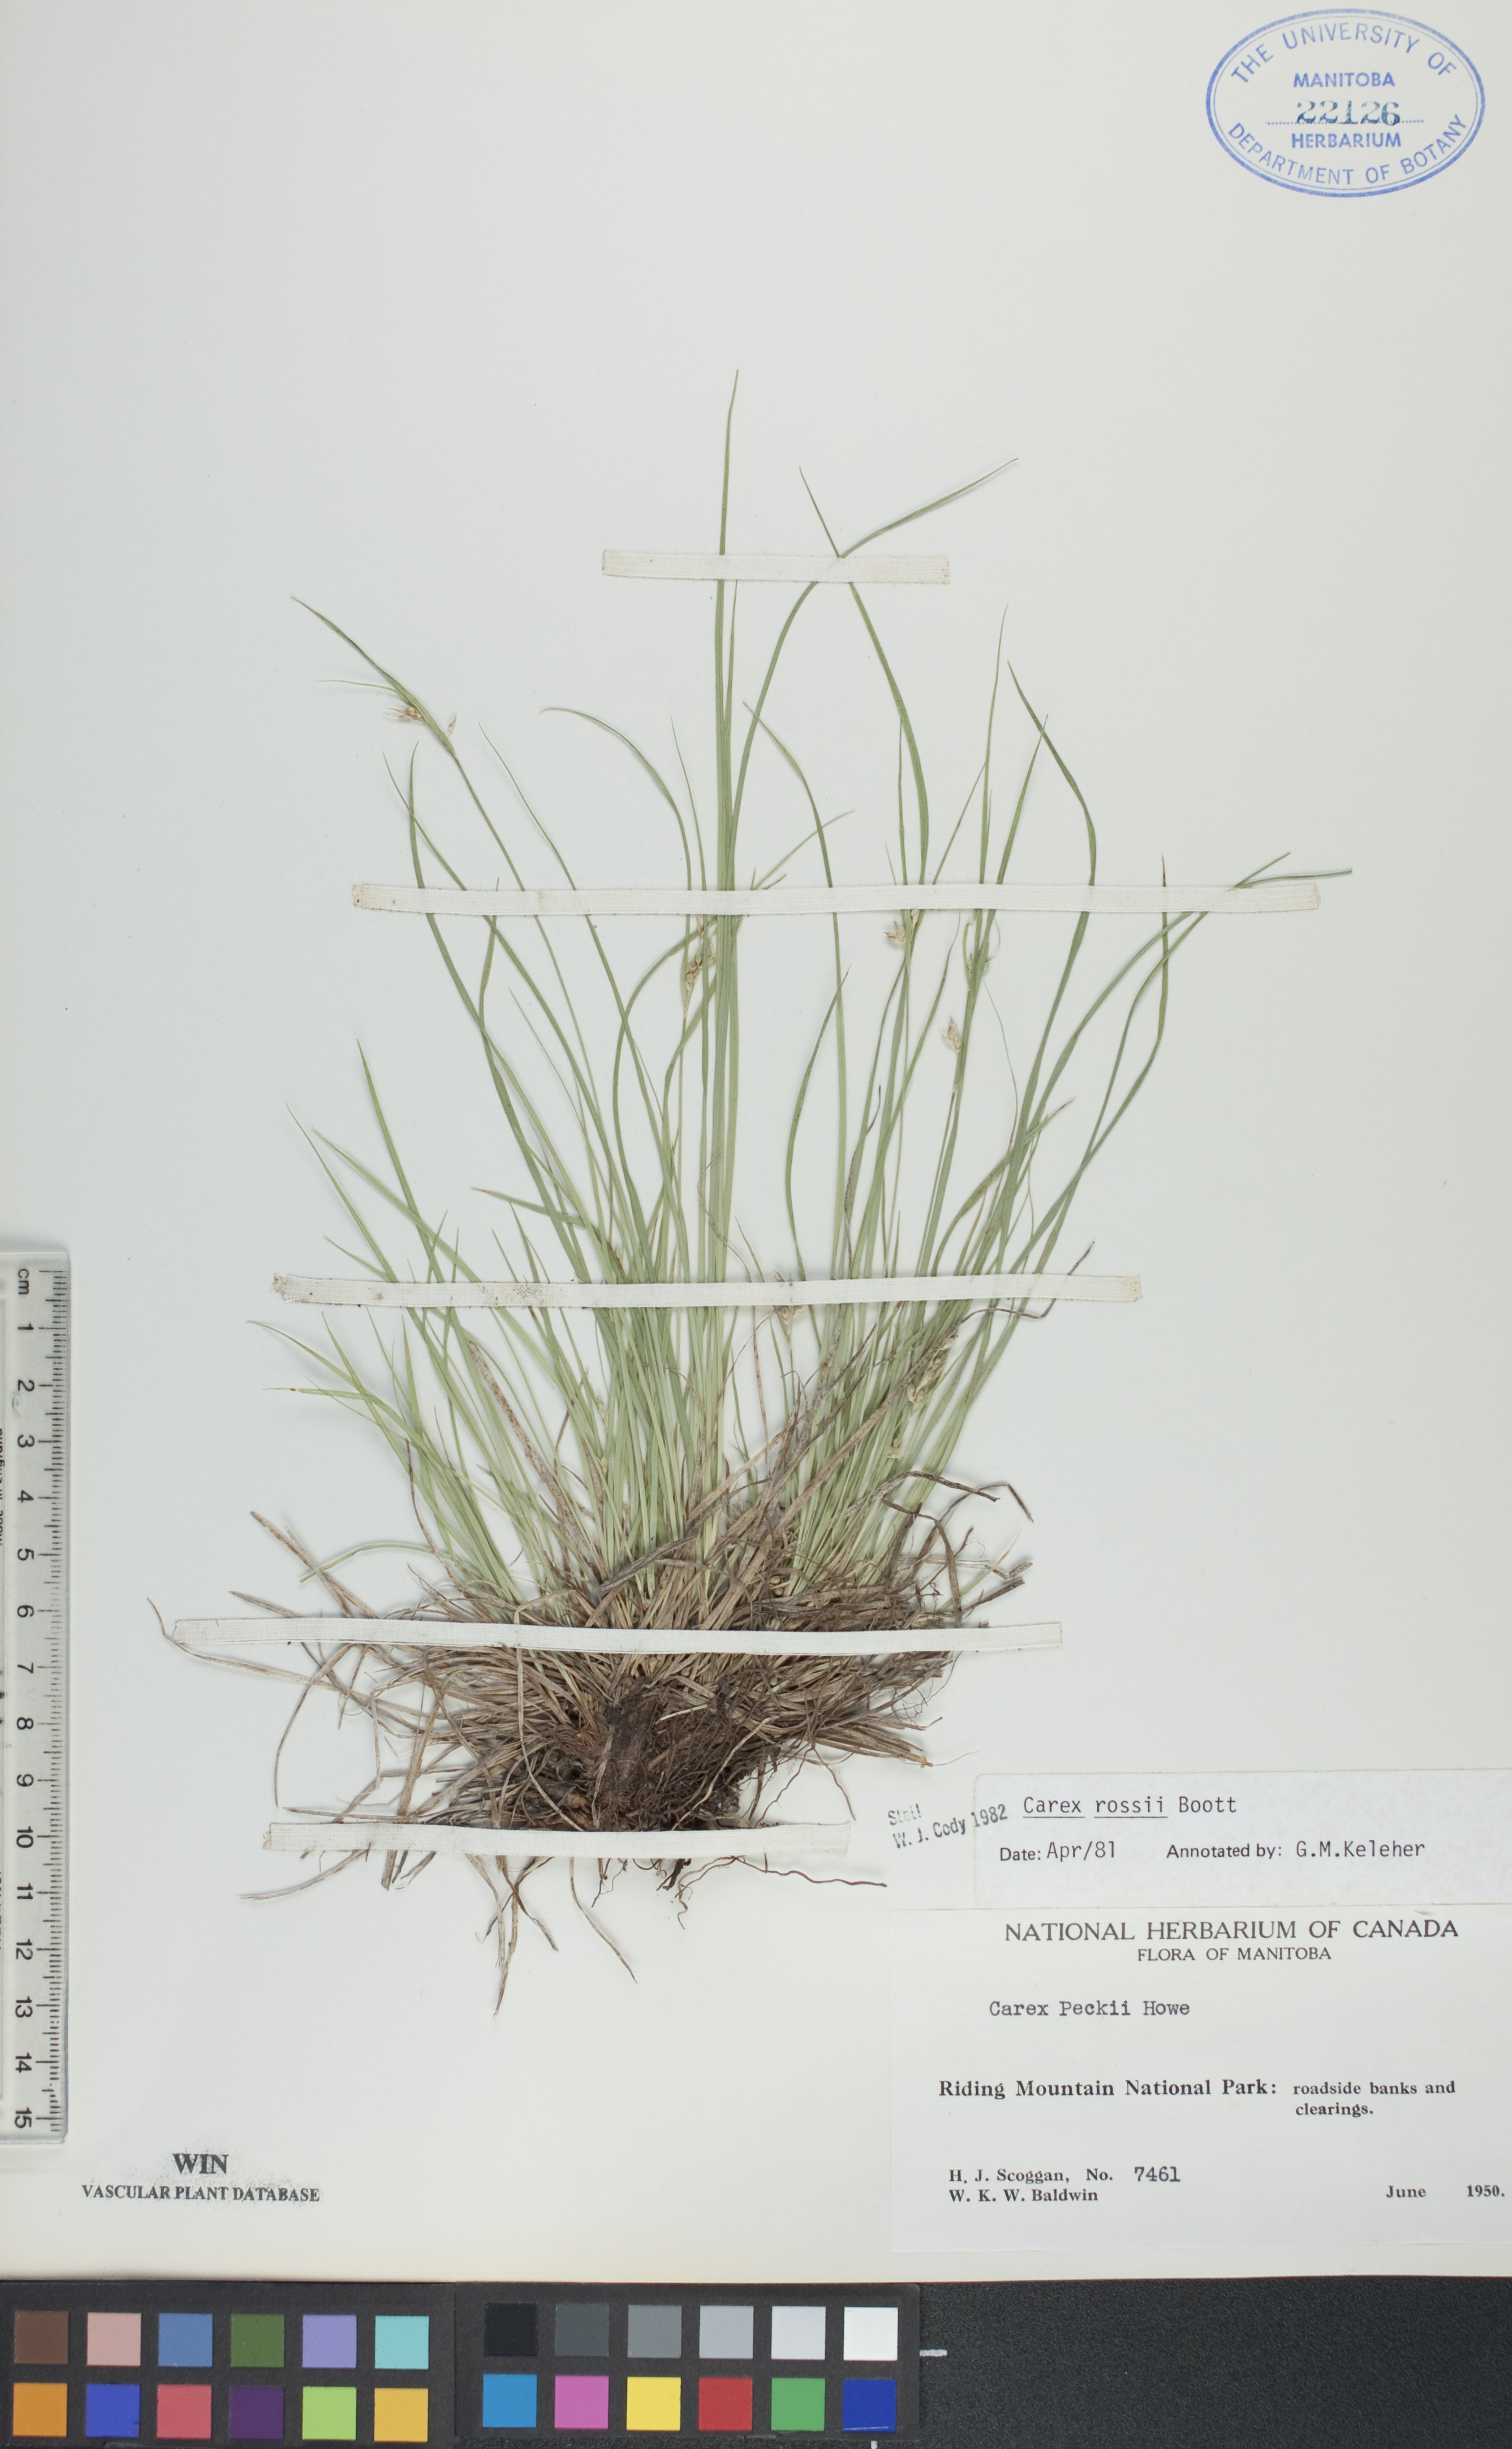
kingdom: Plantae
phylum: Tracheophyta
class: Liliopsida
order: Poales
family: Cyperaceae
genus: Carex
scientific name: Carex rossii
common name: Ross' sedge
